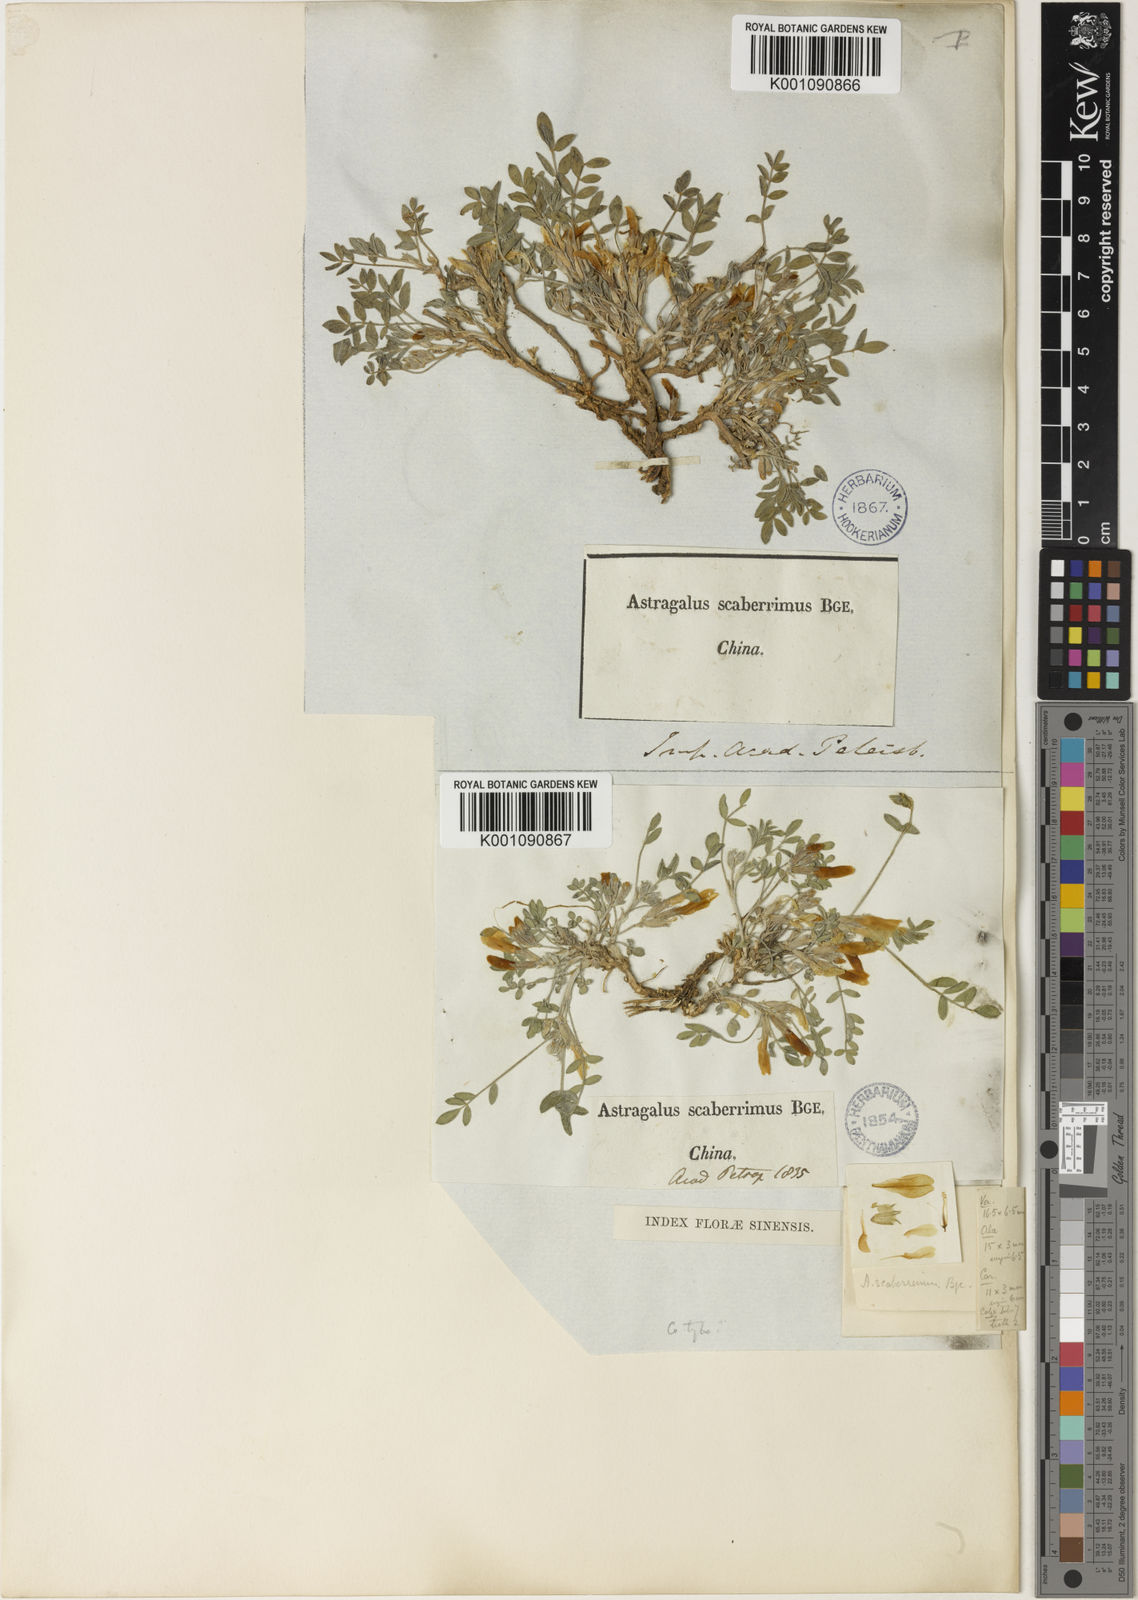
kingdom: Plantae
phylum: Tracheophyta
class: Magnoliopsida
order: Fabales
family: Fabaceae
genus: Astragalus
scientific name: Astragalus
